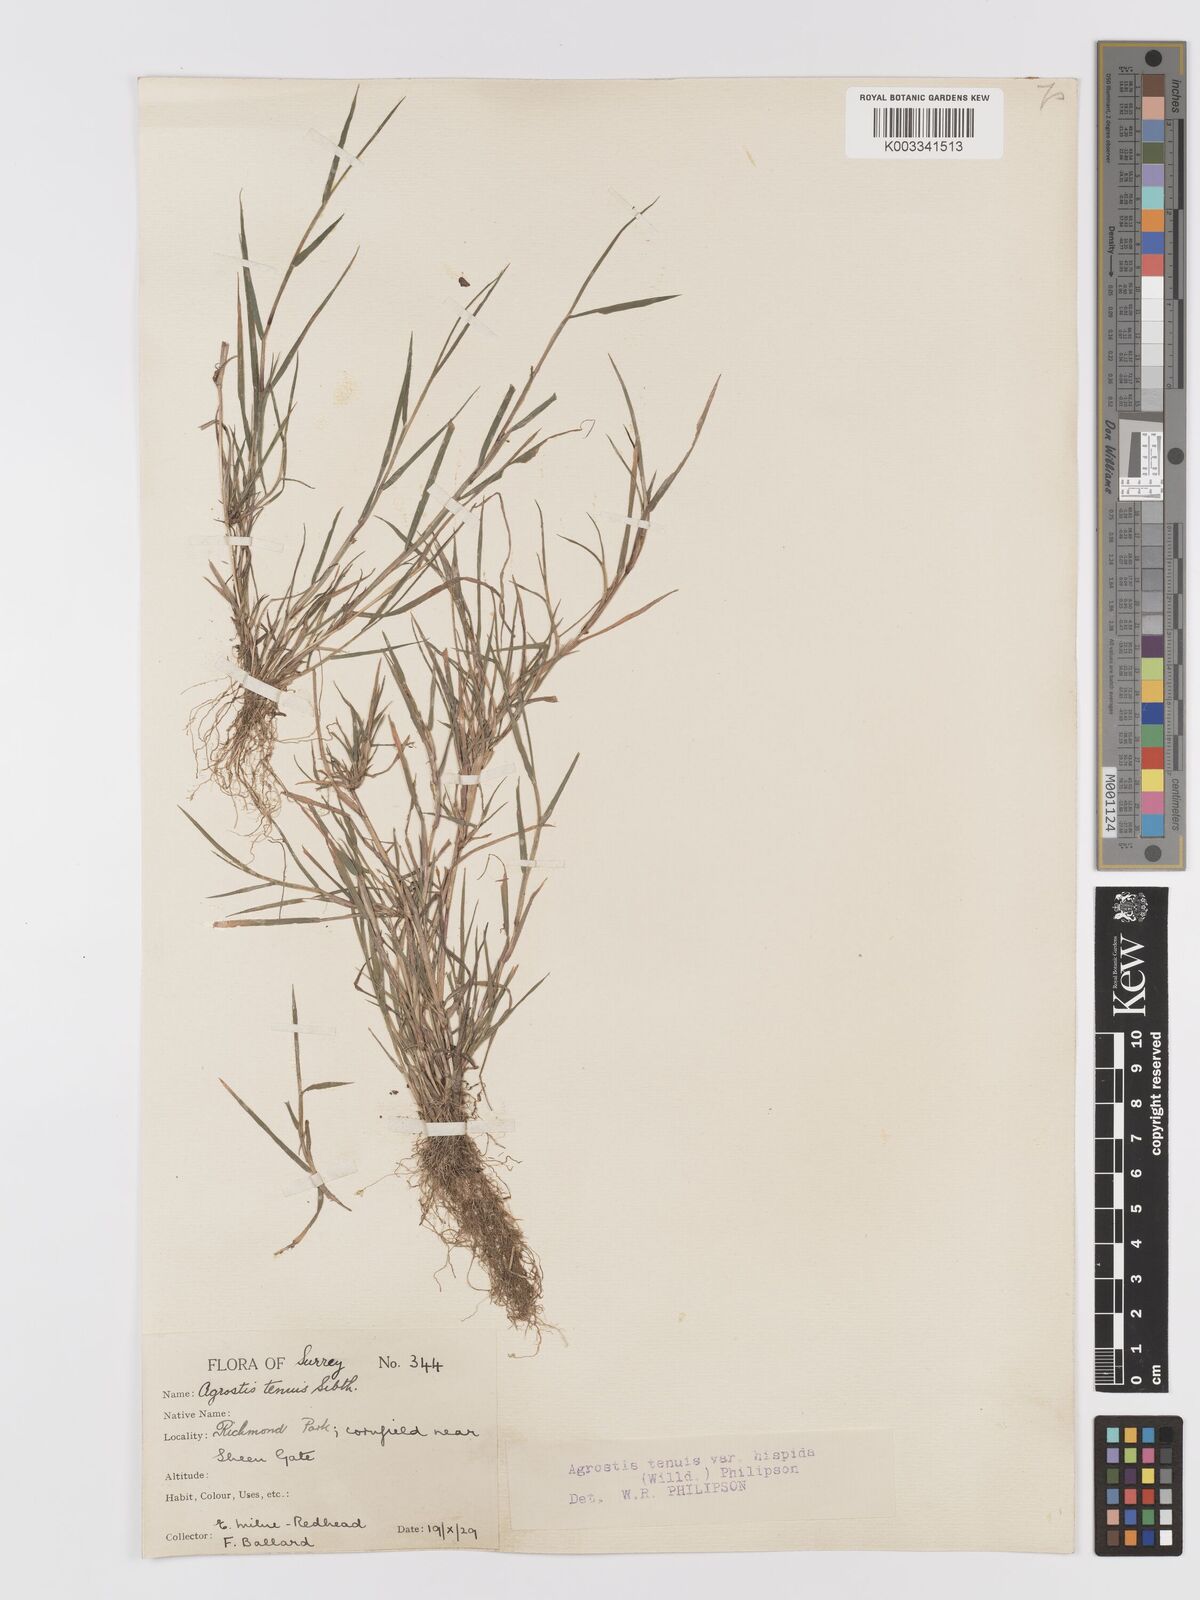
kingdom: Plantae
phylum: Tracheophyta
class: Liliopsida
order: Poales
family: Poaceae
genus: Agrostis
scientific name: Agrostis stolonifera
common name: Creeping bentgrass
